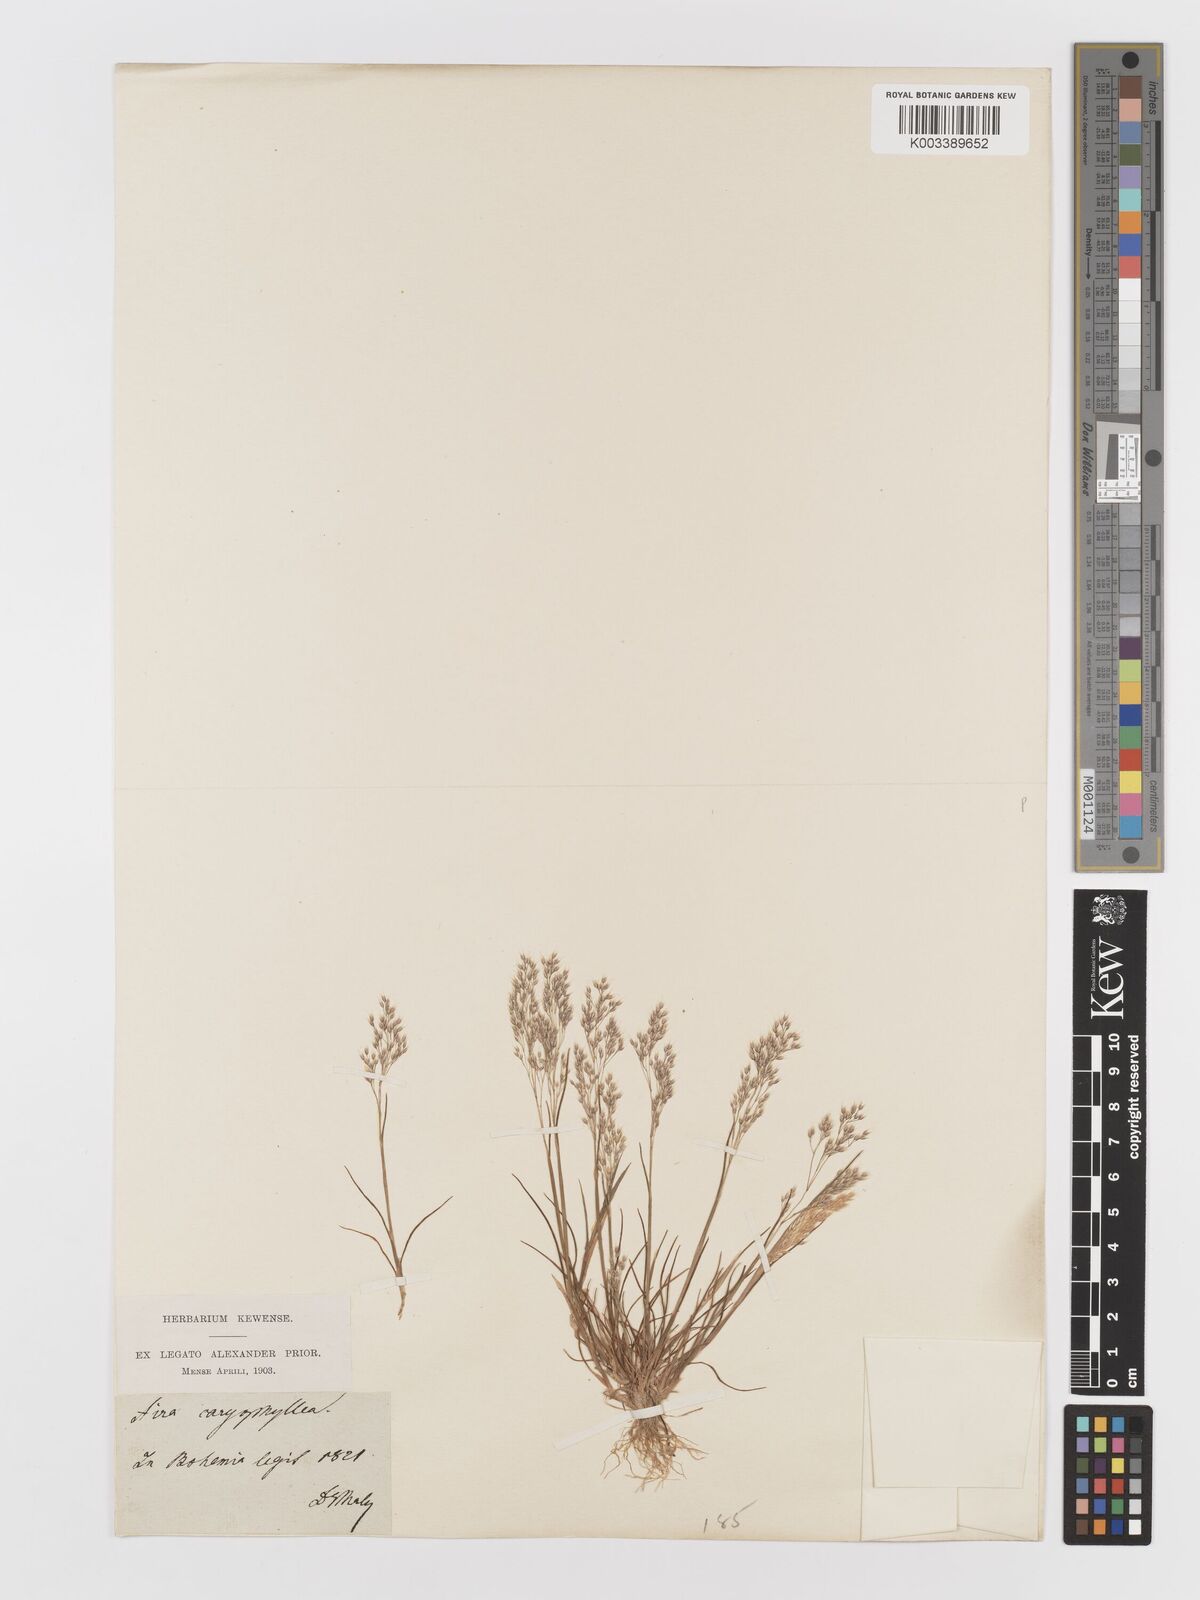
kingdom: Plantae
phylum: Tracheophyta
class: Liliopsida
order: Poales
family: Poaceae
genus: Aira
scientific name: Aira caryophyllea
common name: Silver hairgrass
